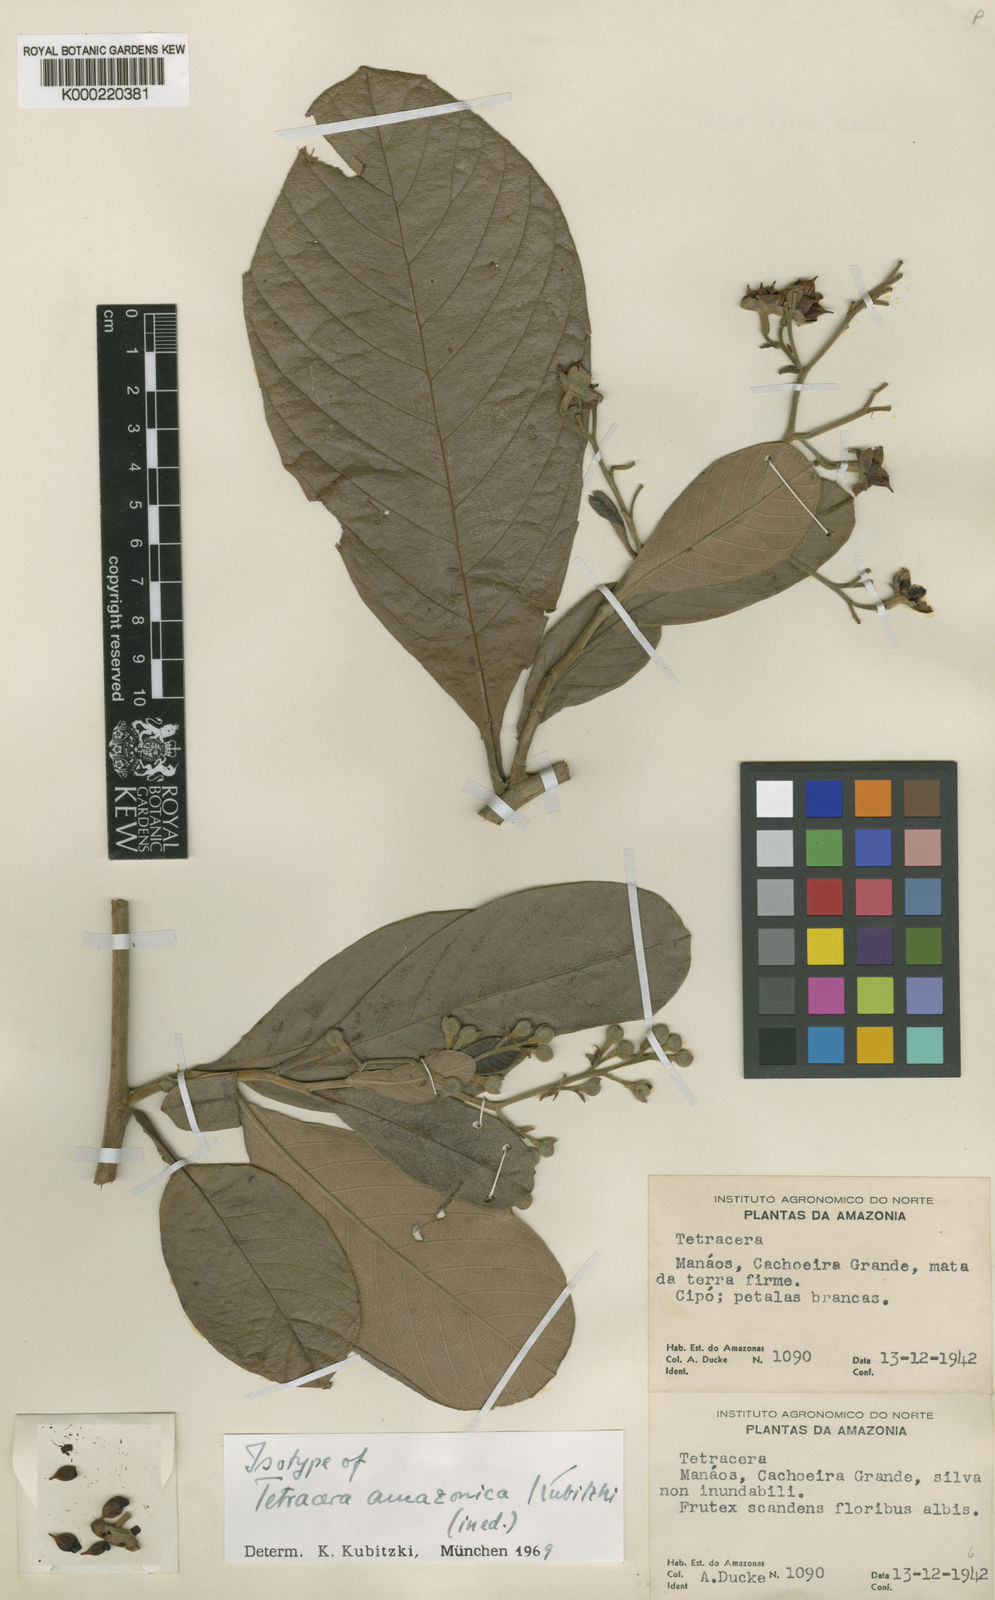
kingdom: Plantae
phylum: Tracheophyta
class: Magnoliopsida
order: Dilleniales
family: Dilleniaceae
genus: Tetracera
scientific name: Tetracera amazonica
